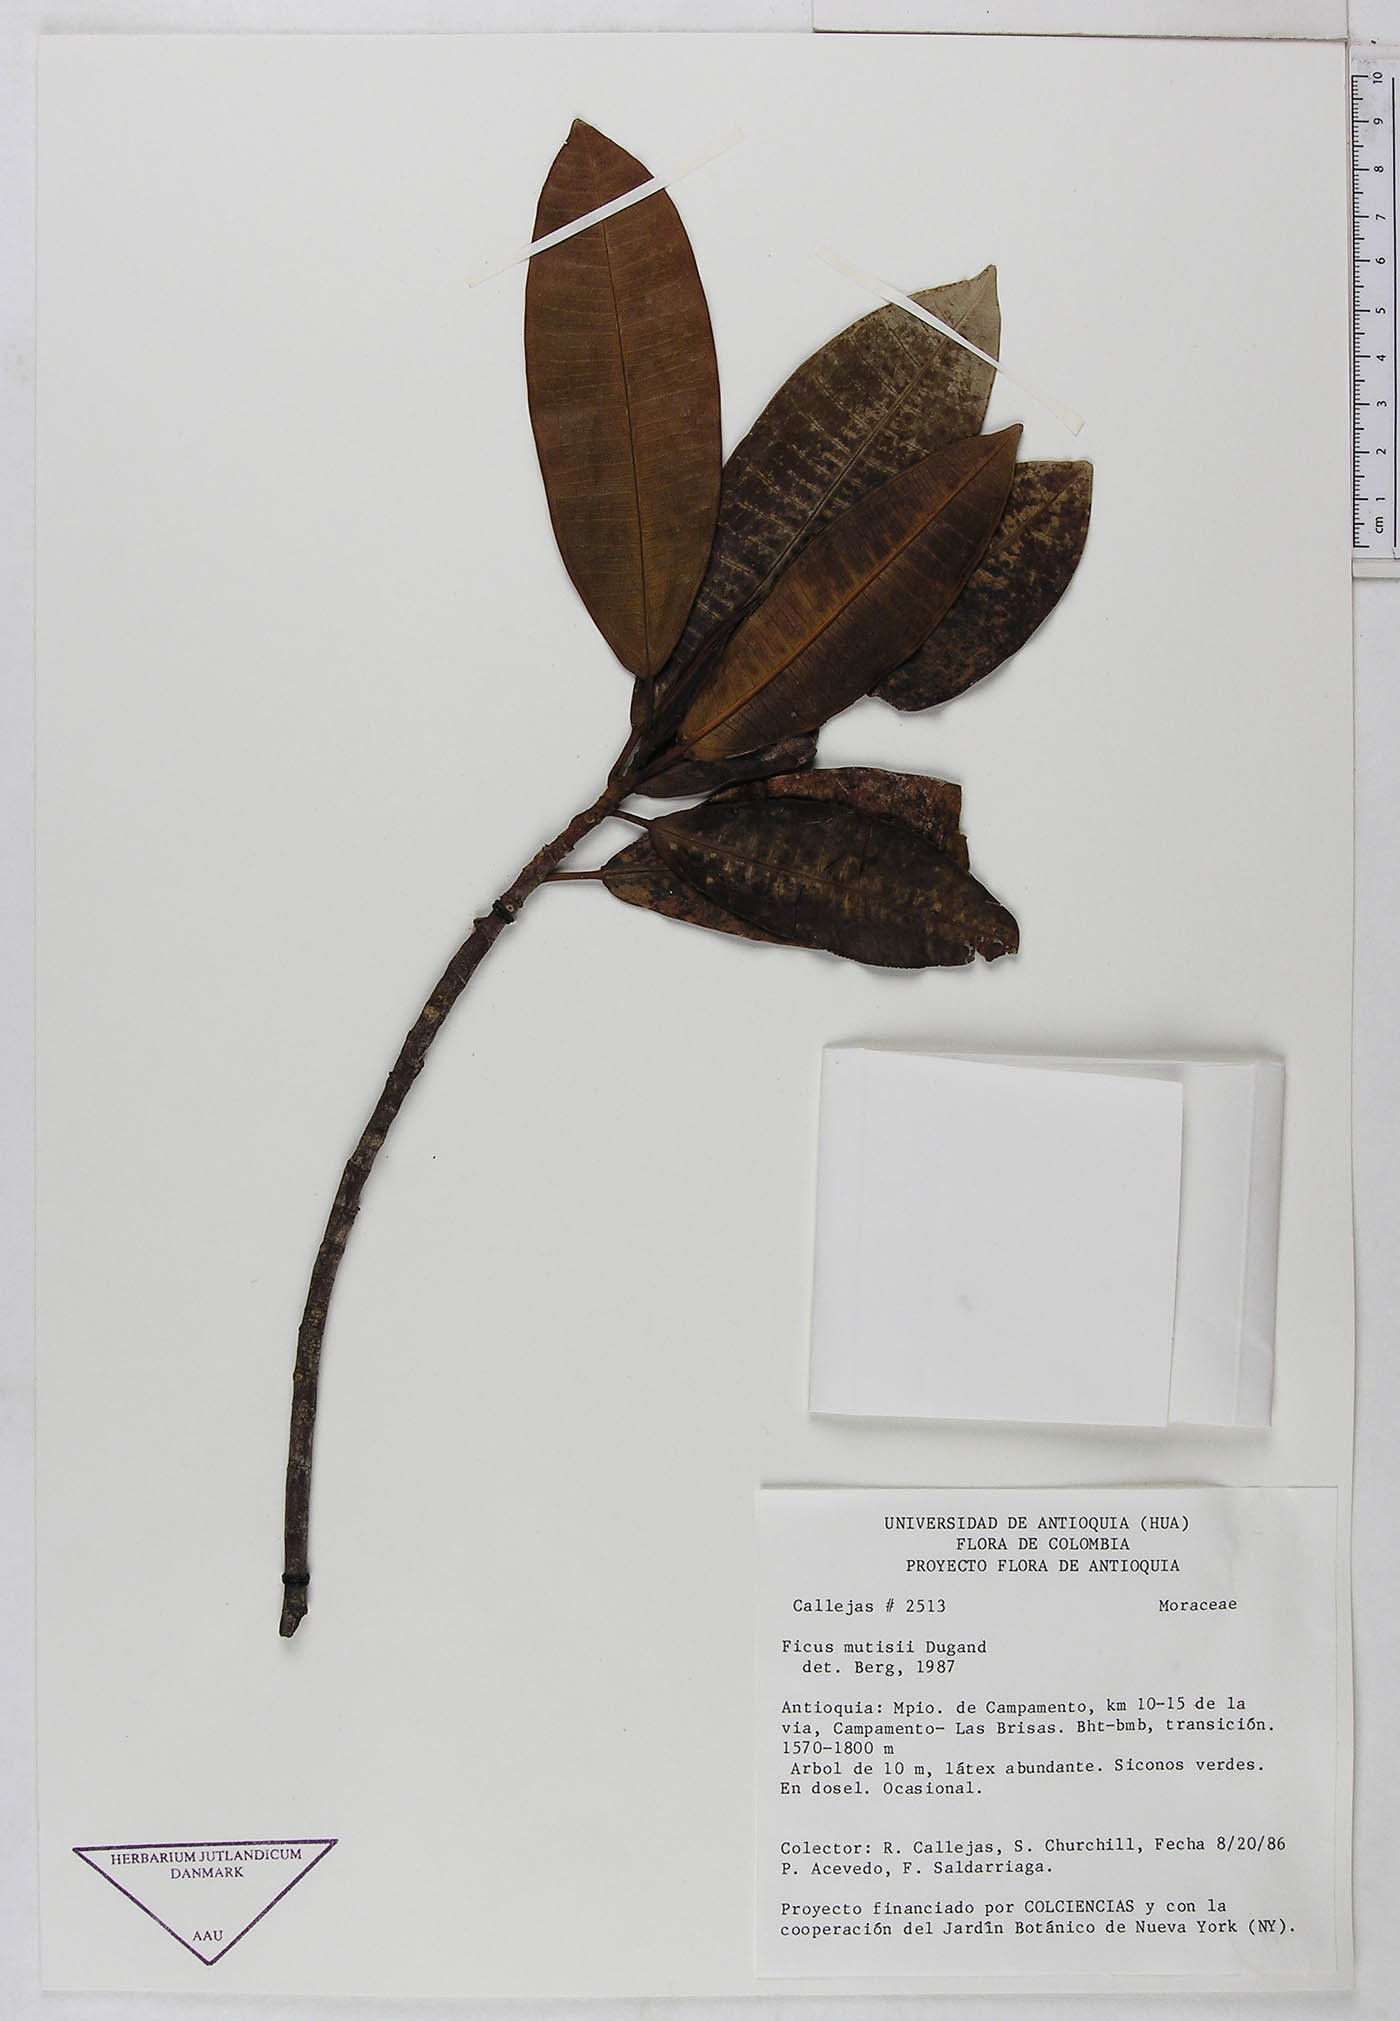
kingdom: Plantae
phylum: Tracheophyta
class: Magnoliopsida
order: Rosales
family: Moraceae
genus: Ficus
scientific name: Ficus mutisii
